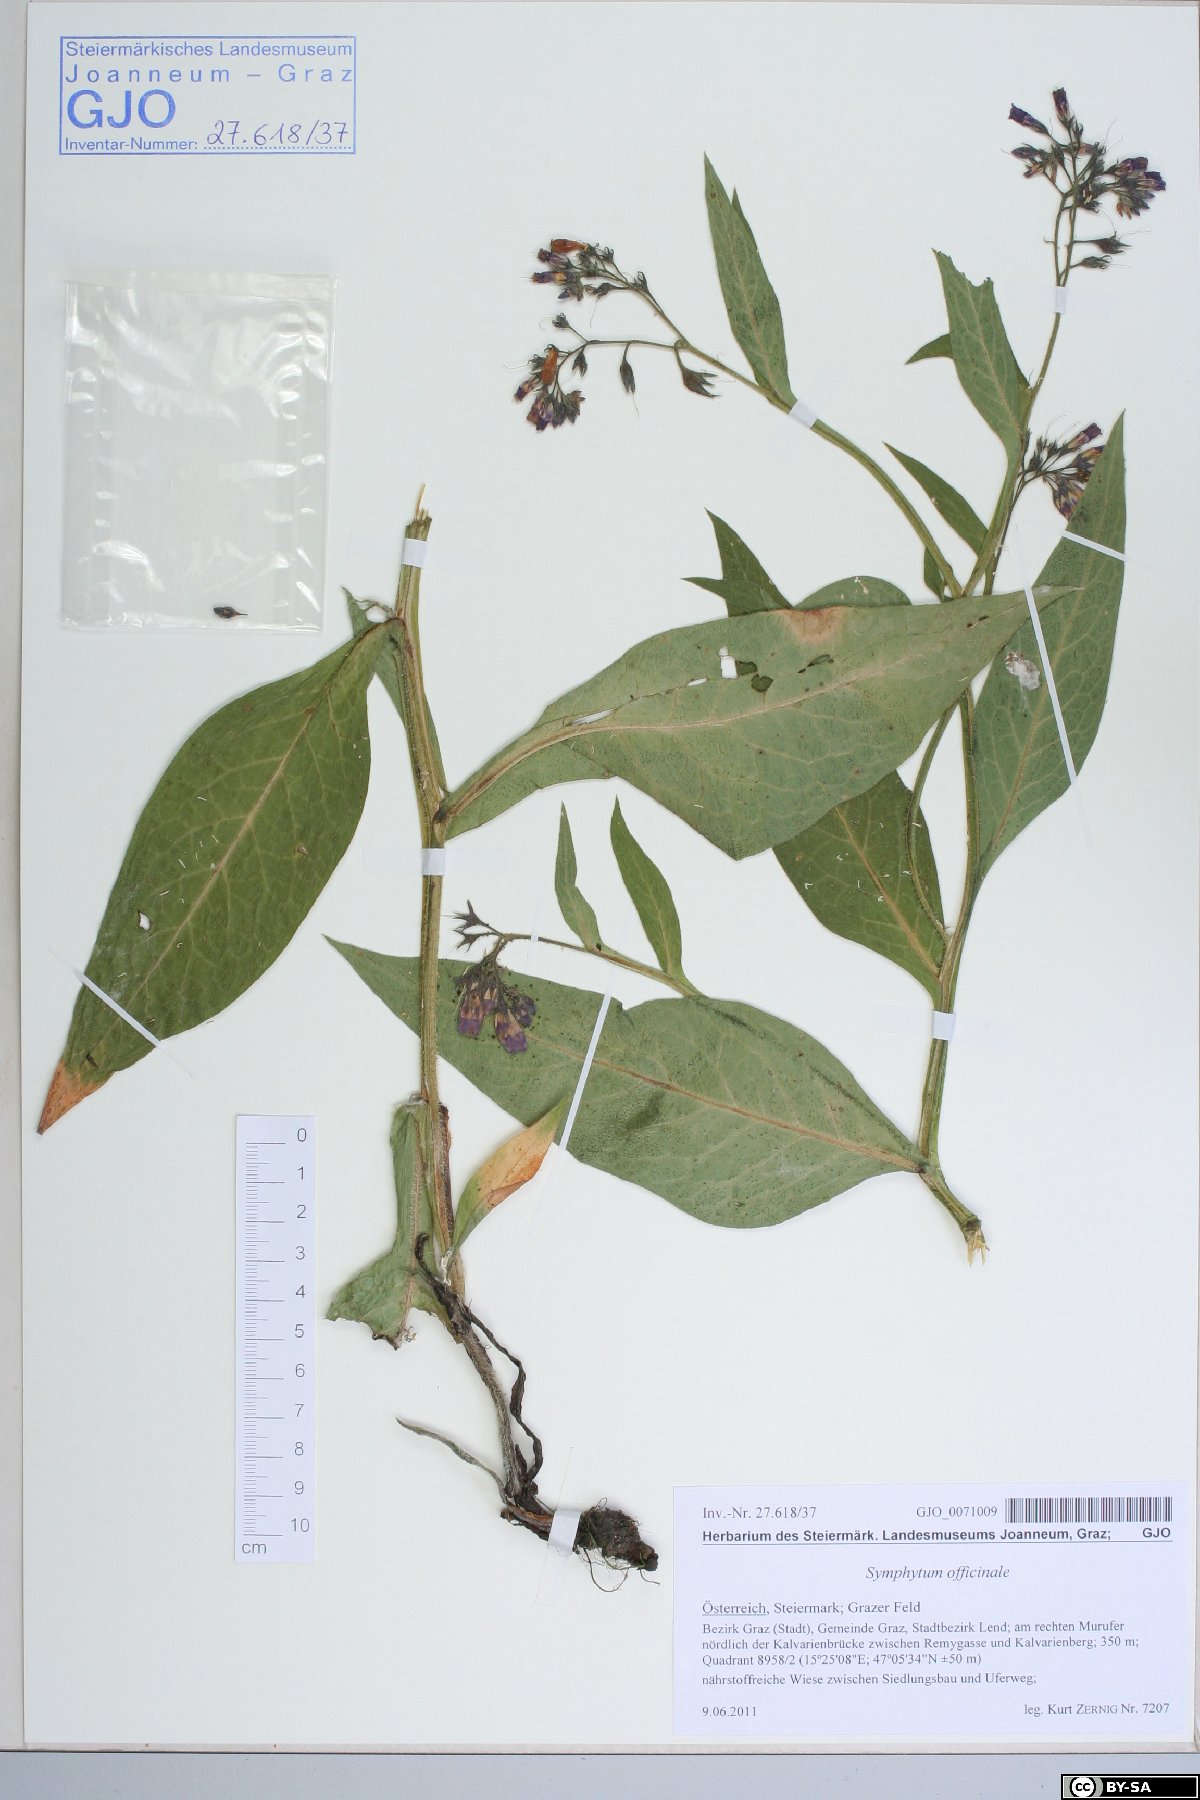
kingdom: Plantae
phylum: Tracheophyta
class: Magnoliopsida
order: Boraginales
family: Boraginaceae
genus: Symphytum
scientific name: Symphytum officinale
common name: Common comfrey
